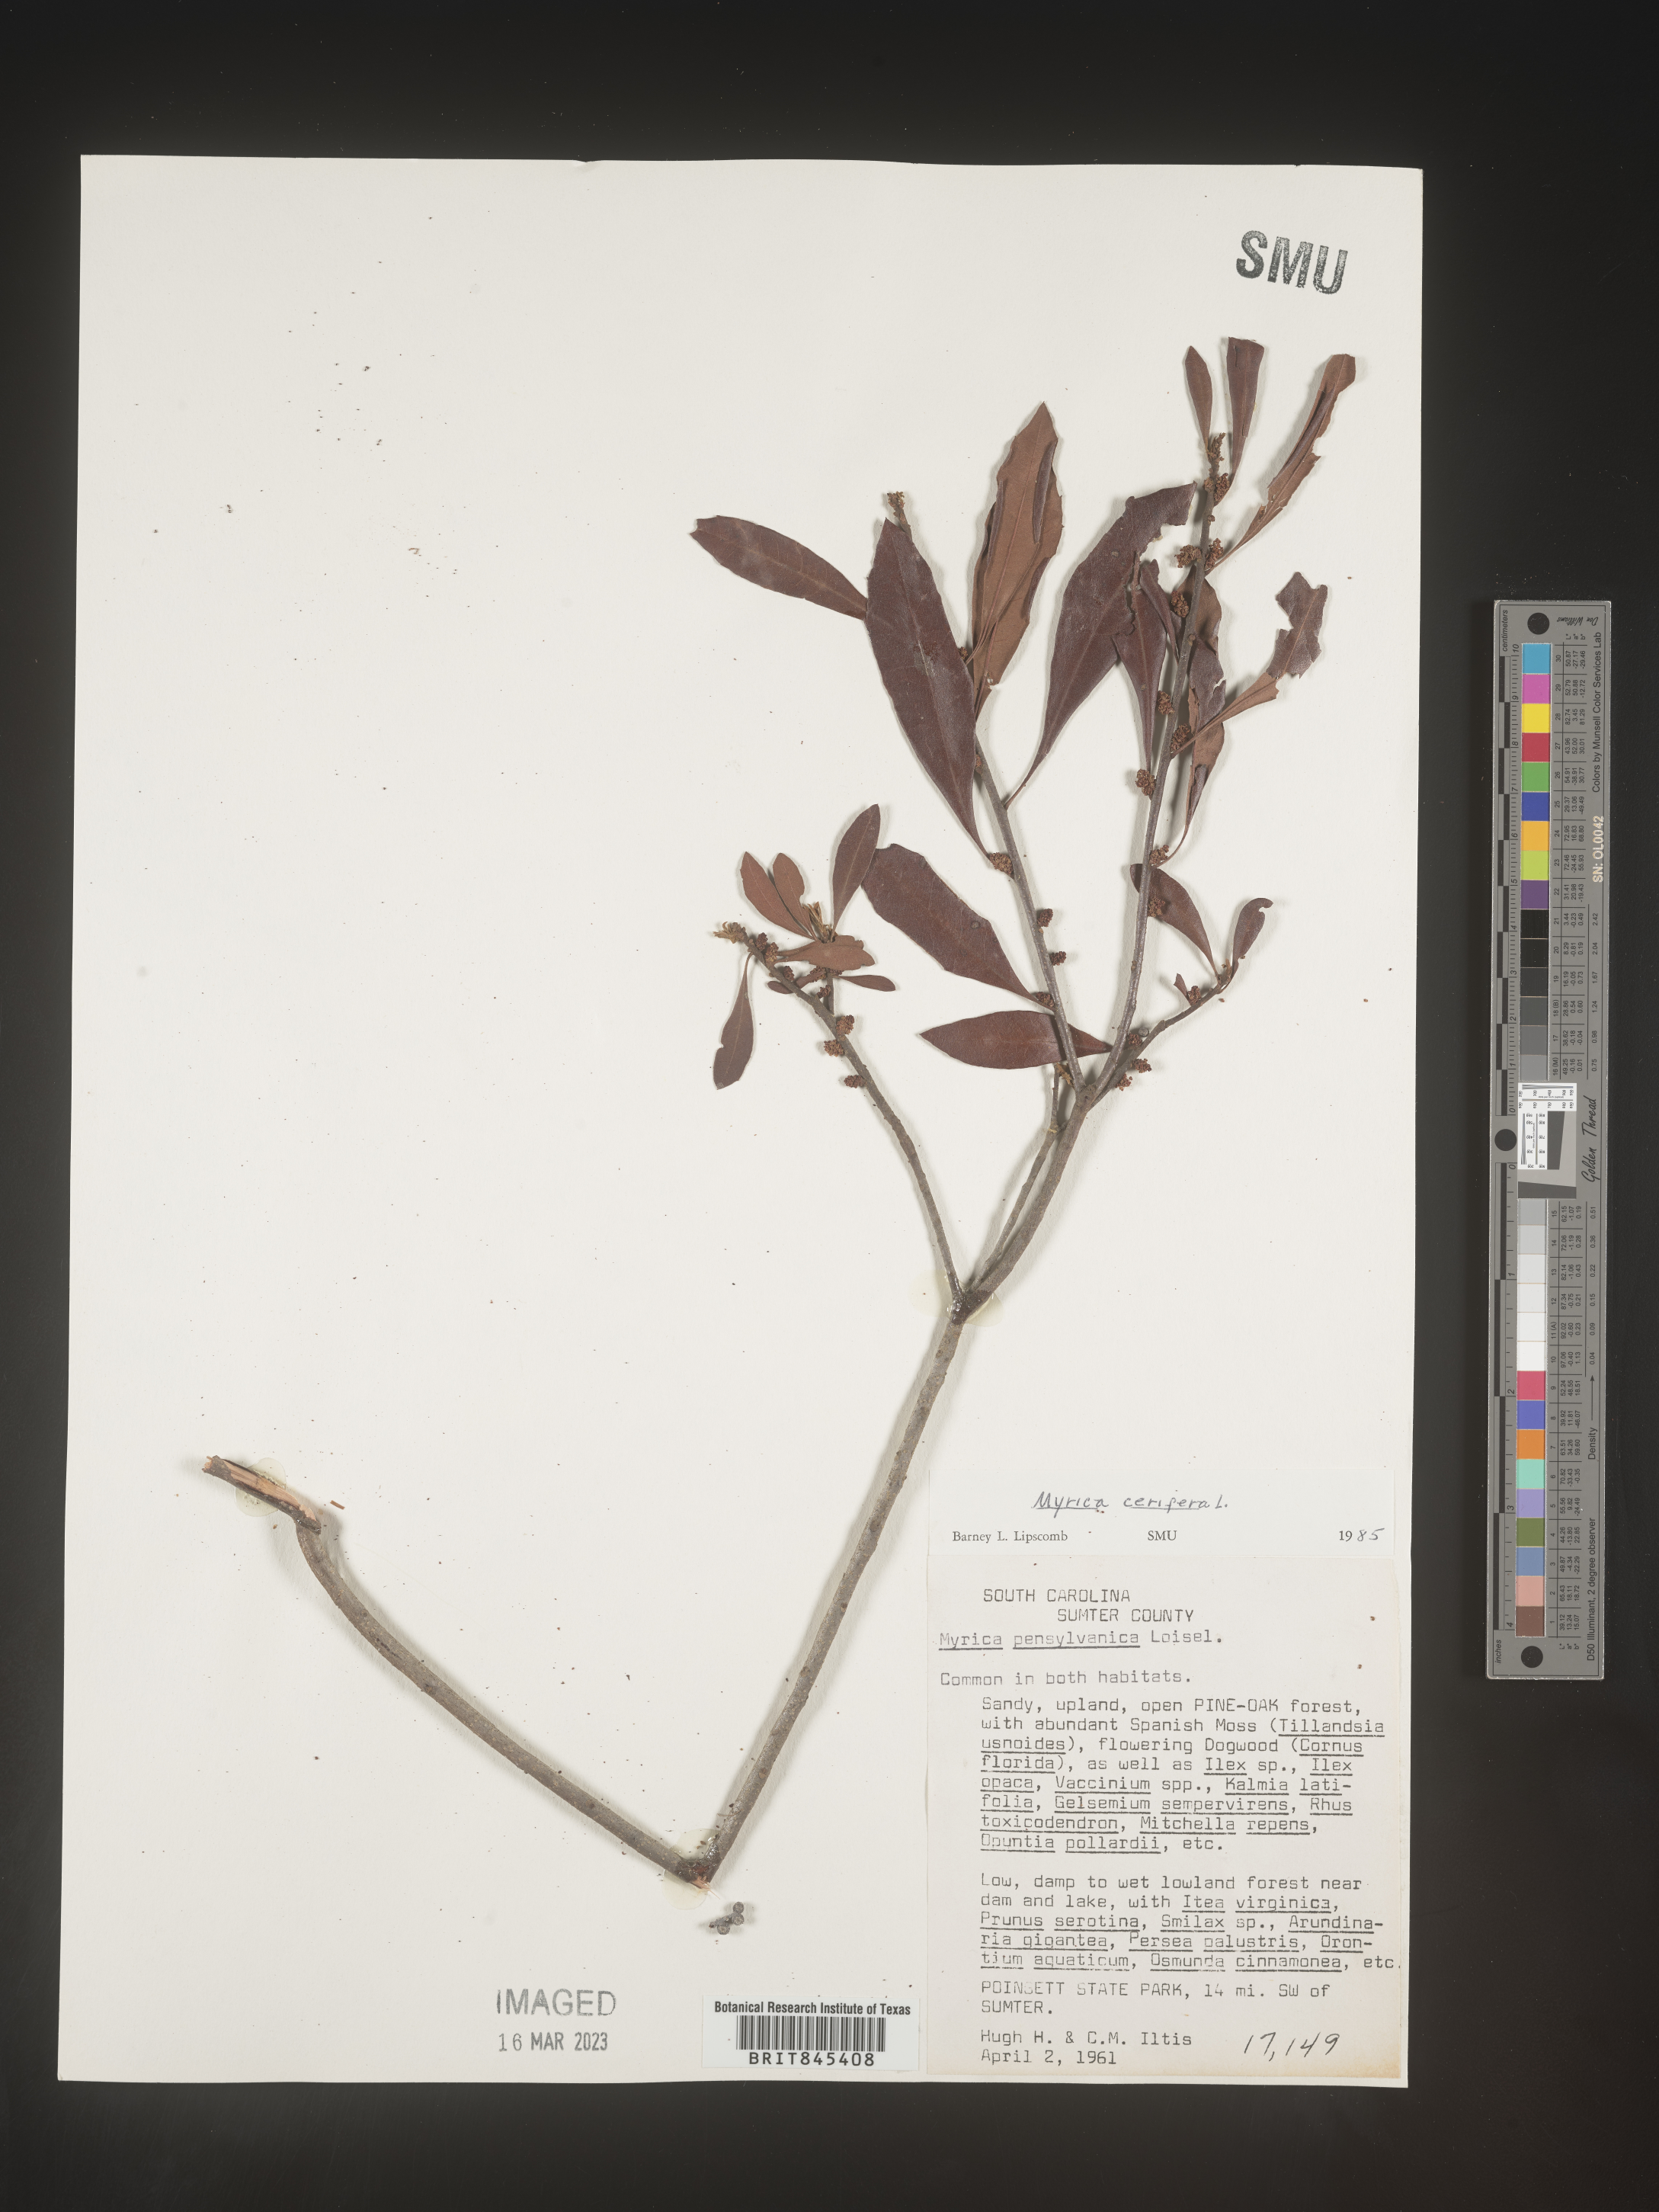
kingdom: Plantae
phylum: Tracheophyta
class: Magnoliopsida
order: Fagales
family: Myricaceae
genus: Morella
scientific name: Morella cerifera
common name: Wax myrtle
